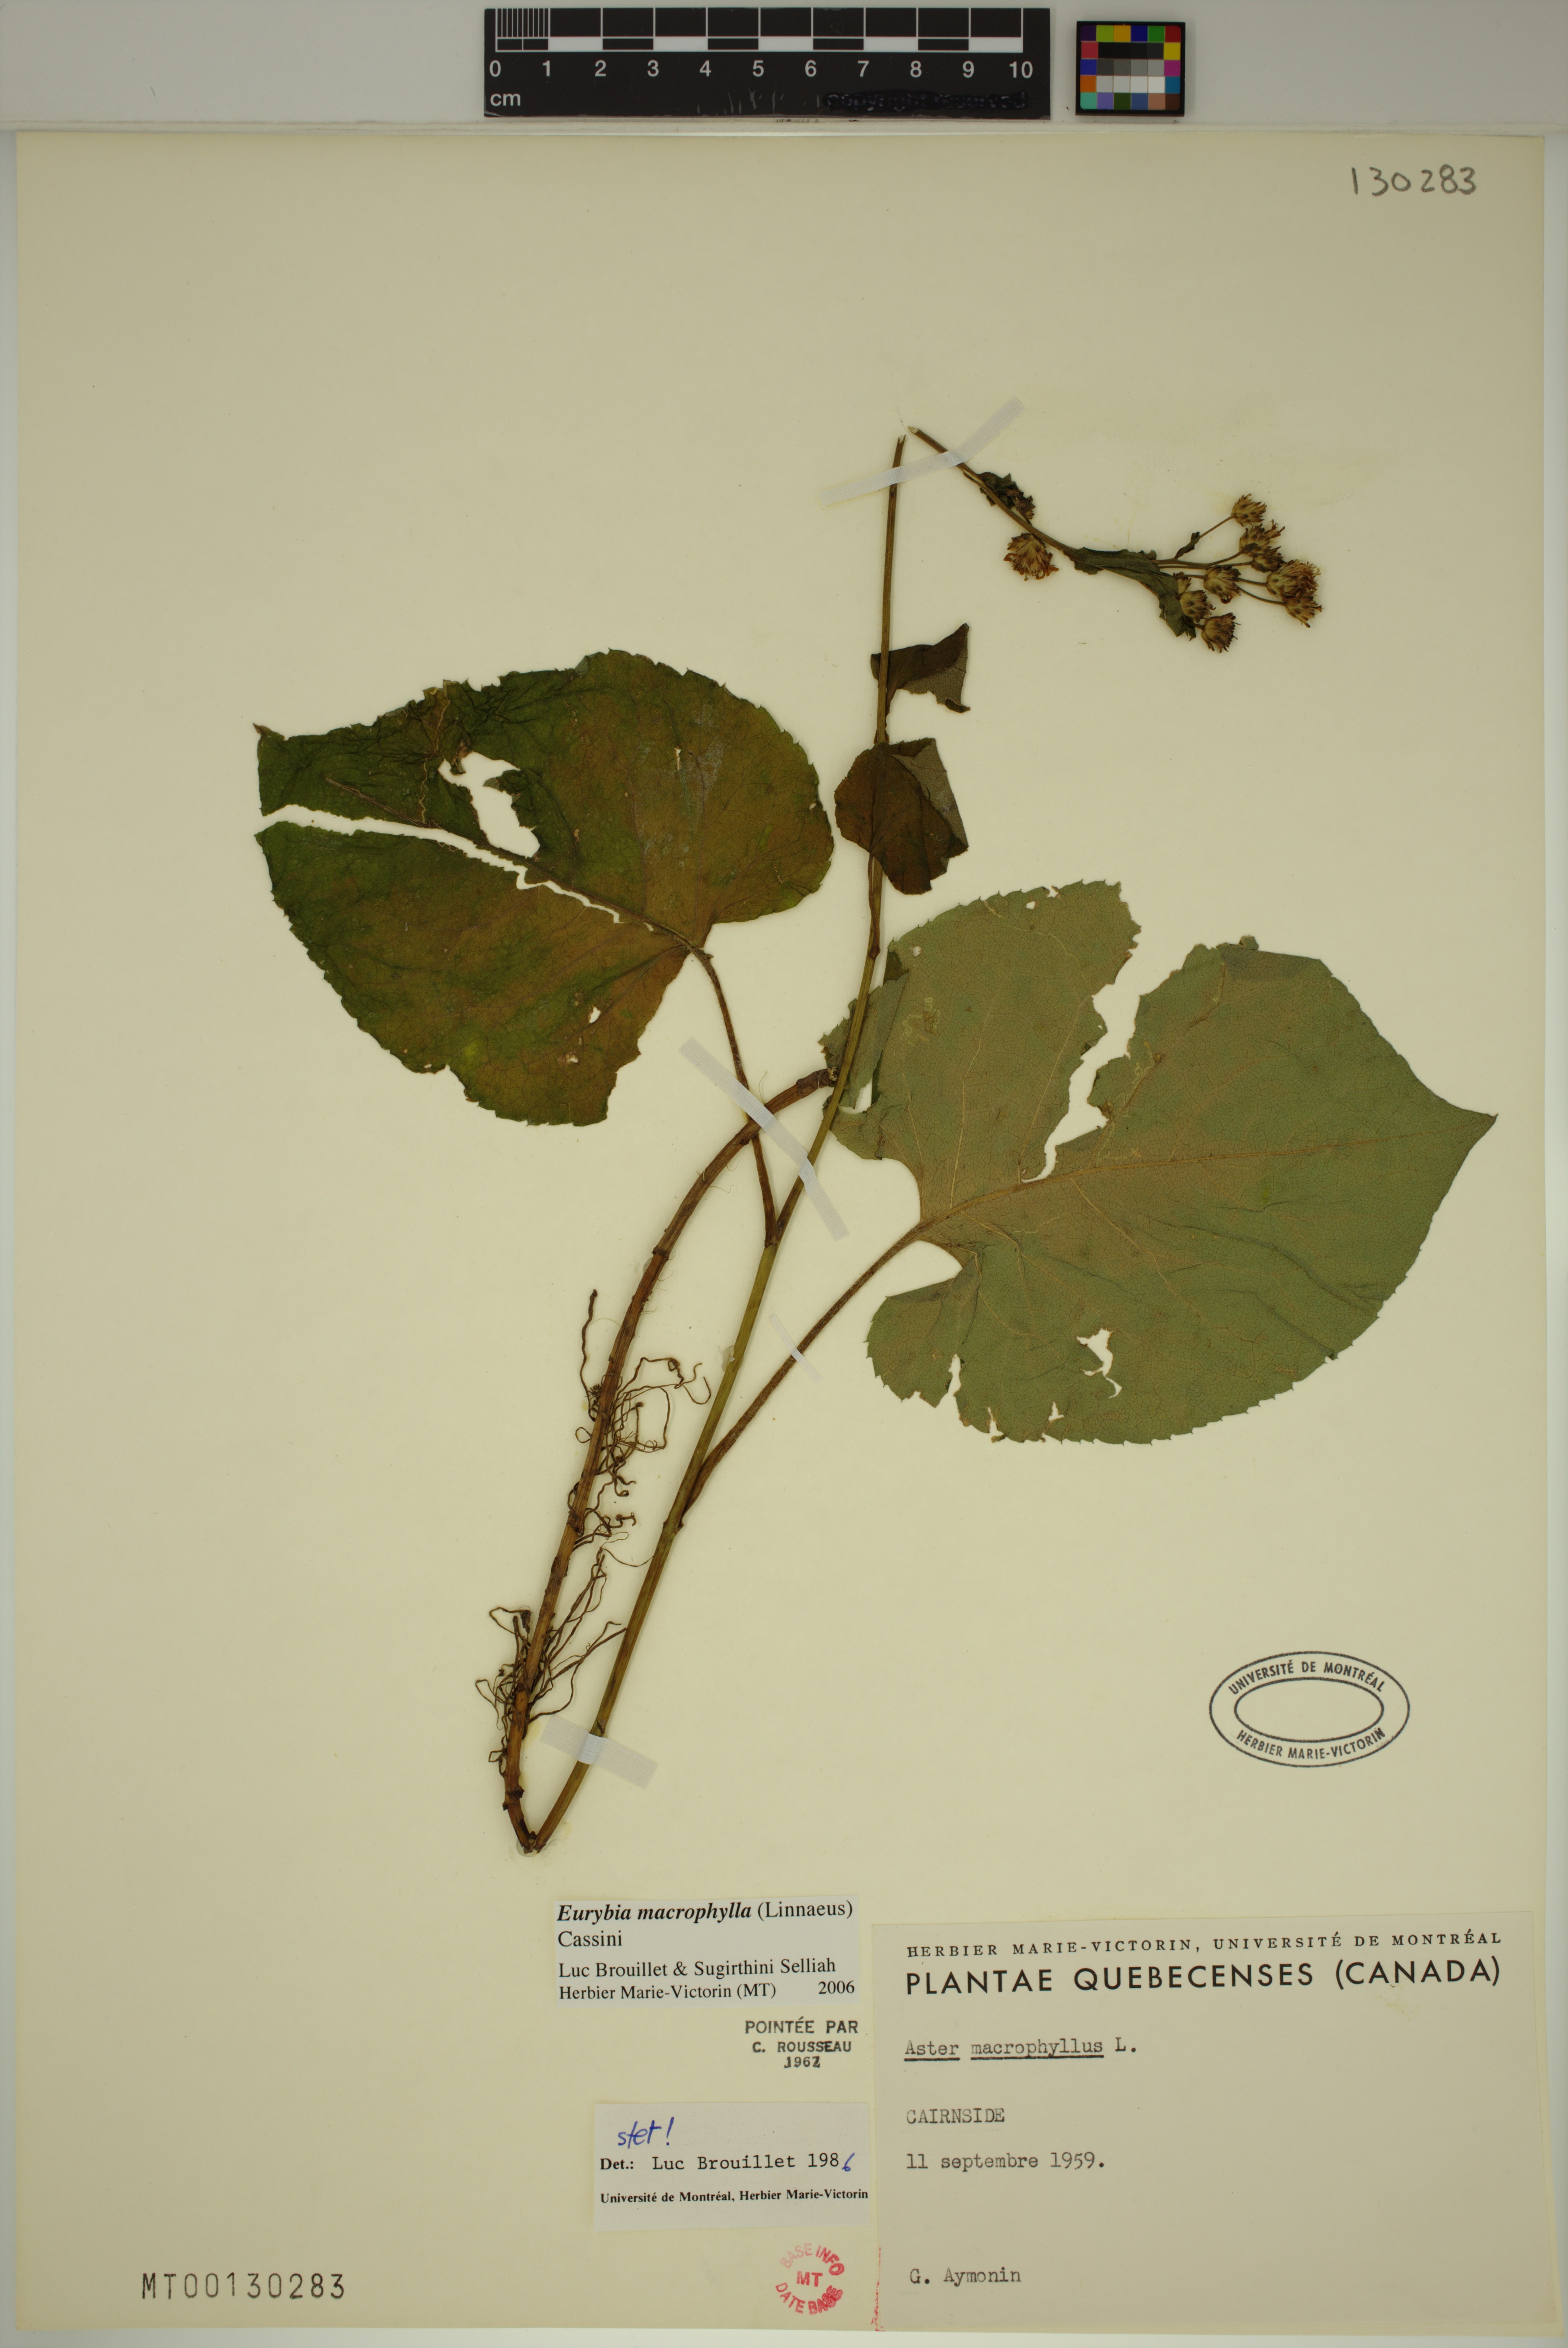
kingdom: Plantae
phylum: Tracheophyta
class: Magnoliopsida
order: Asterales
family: Asteraceae
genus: Eurybia
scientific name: Eurybia macrophylla
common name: Big-leaved aster
